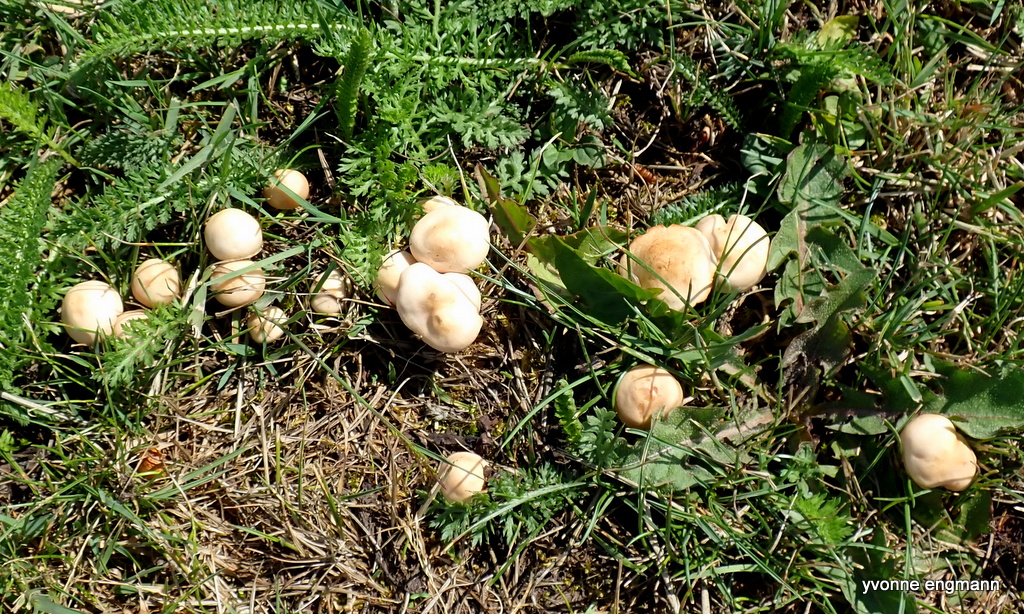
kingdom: Fungi
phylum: Basidiomycota
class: Agaricomycetes
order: Agaricales
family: Marasmiaceae
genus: Marasmius
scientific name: Marasmius oreades
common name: elledans-bruskhat
